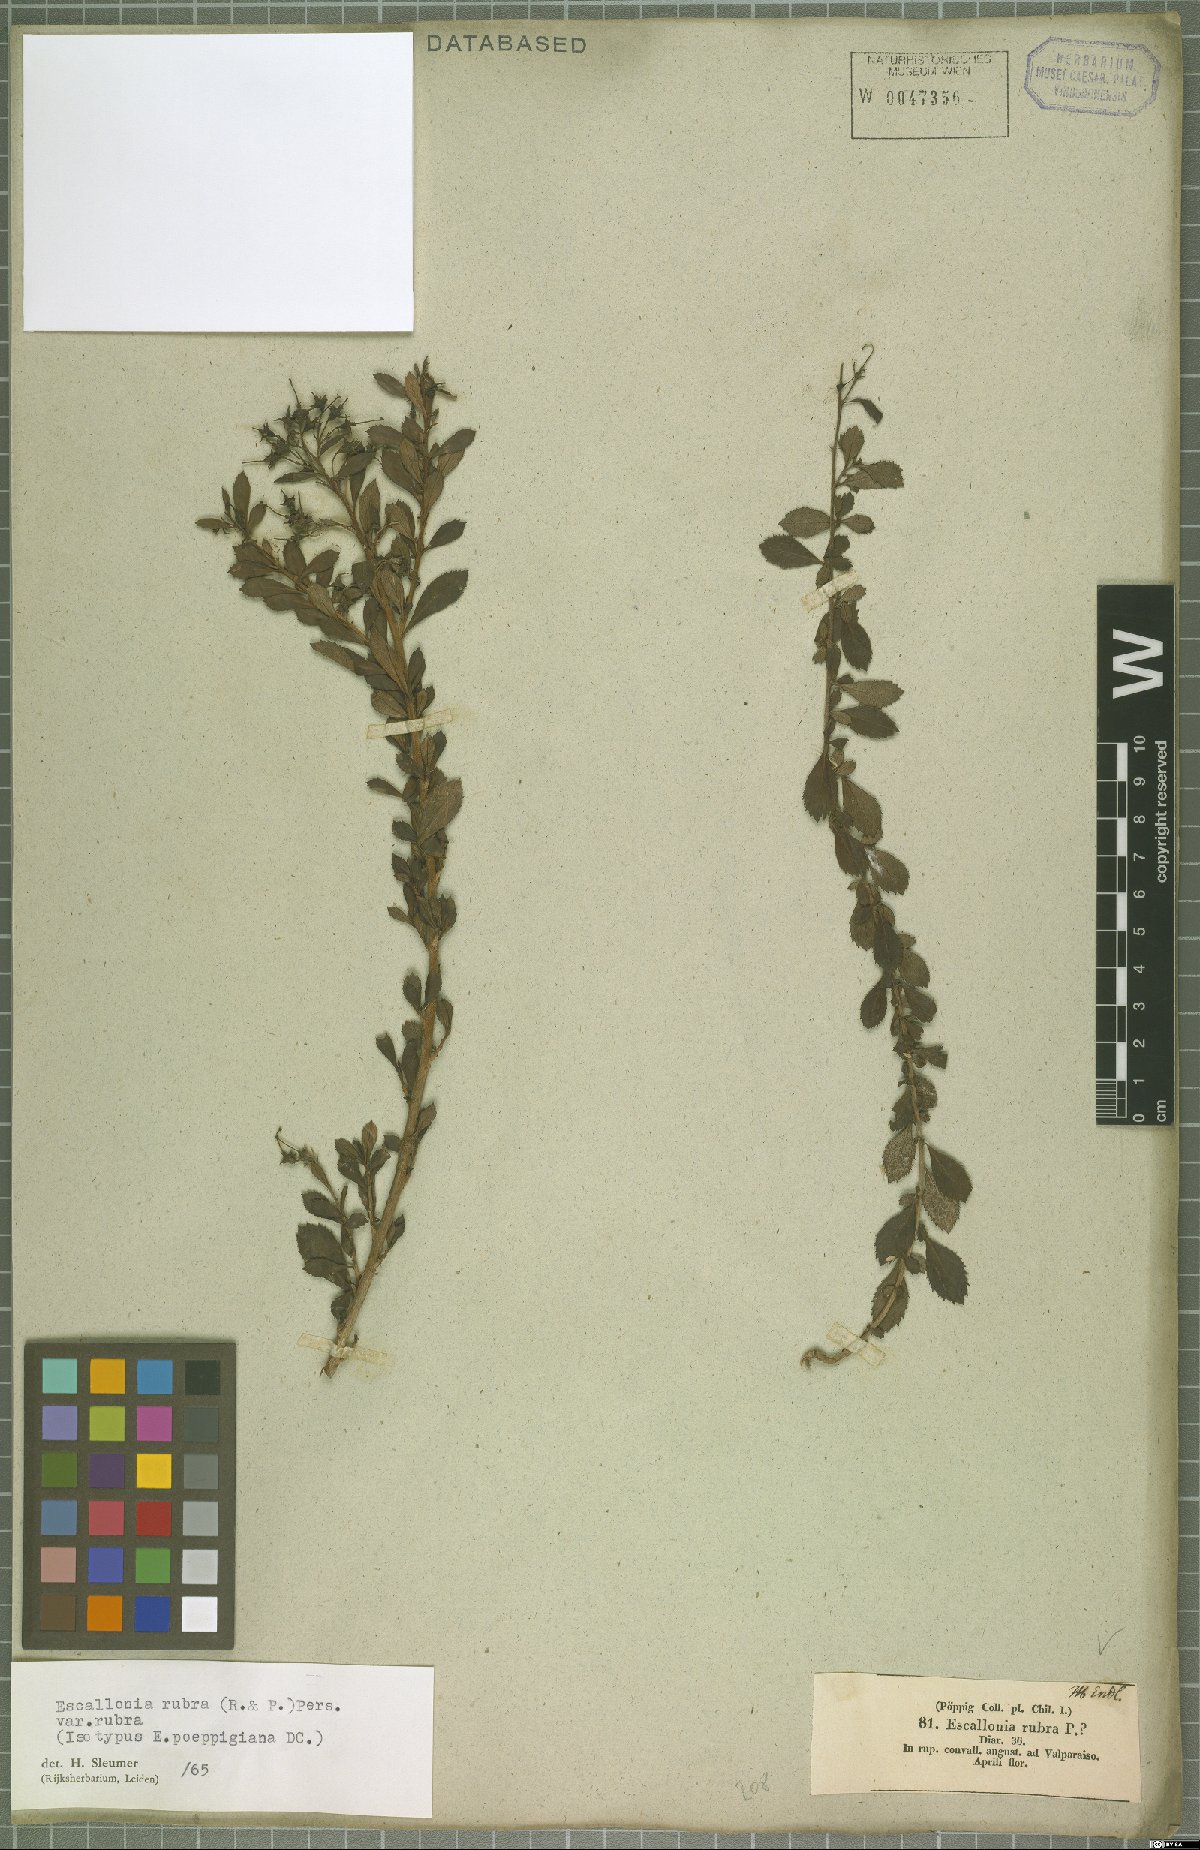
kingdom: Plantae
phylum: Tracheophyta
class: Magnoliopsida
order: Escalloniales
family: Escalloniaceae
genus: Escallonia
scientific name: Escallonia rubra
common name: Redclaws
